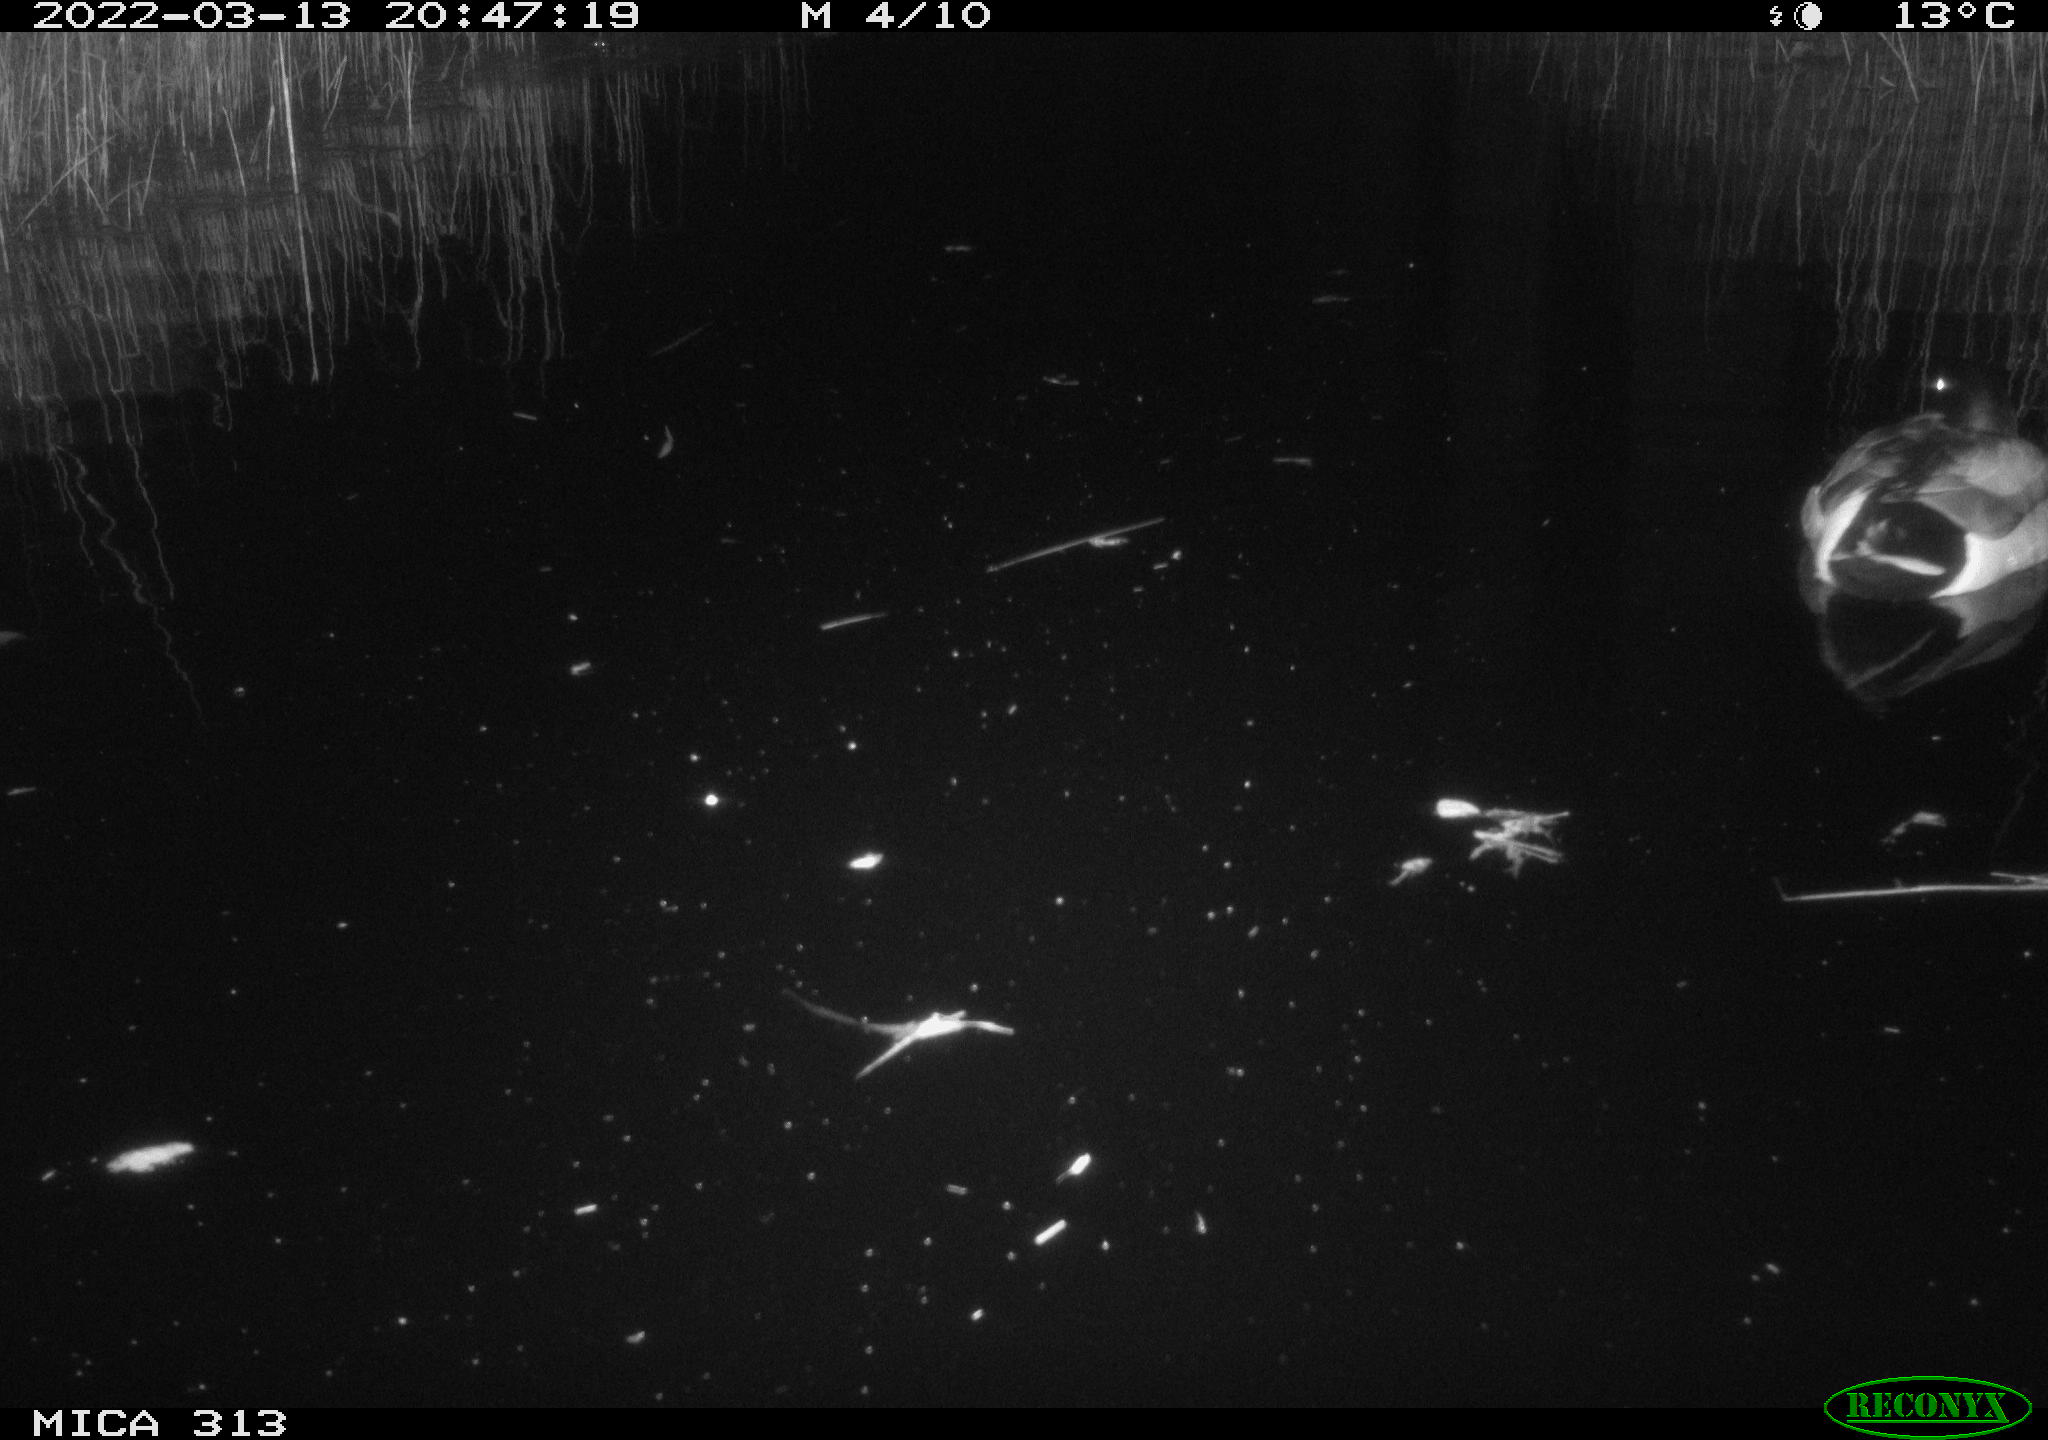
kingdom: Animalia
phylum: Chordata
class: Aves
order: Anseriformes
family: Anatidae
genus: Anas
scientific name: Anas platyrhynchos
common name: Mallard
